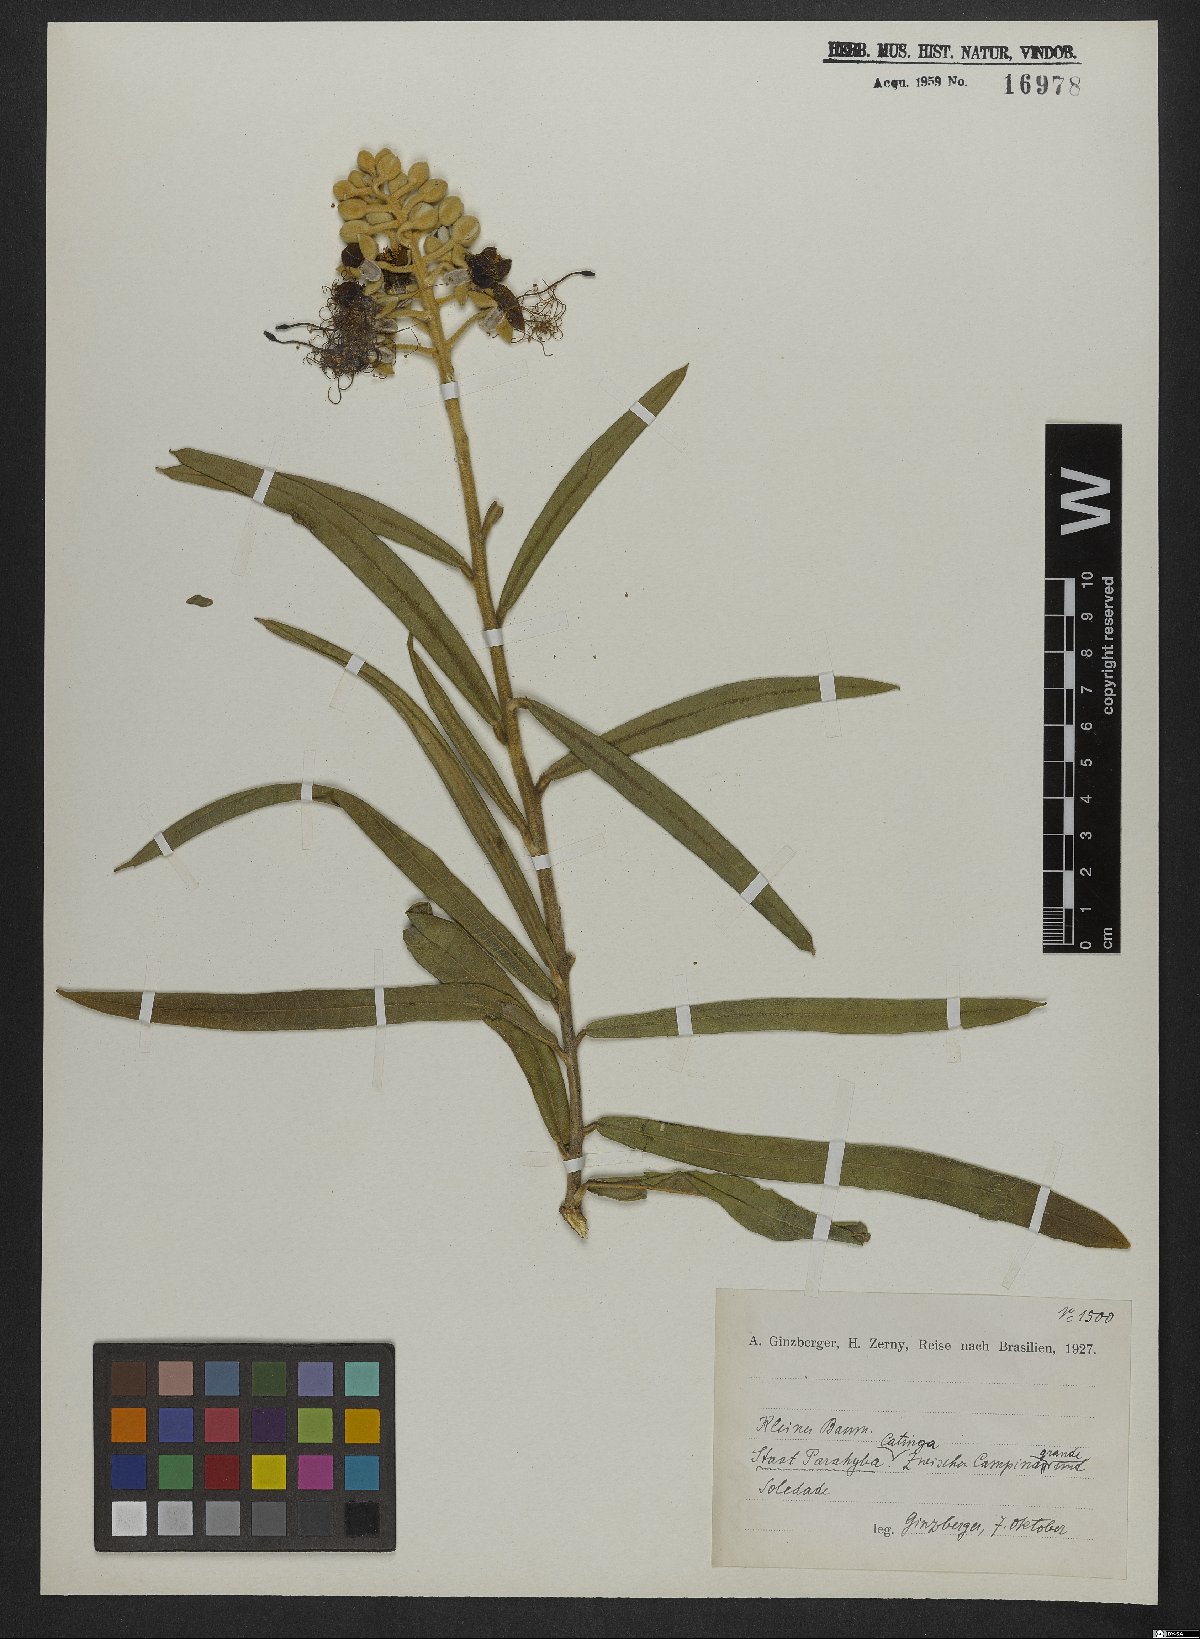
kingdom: Plantae
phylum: Tracheophyta
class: Magnoliopsida
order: Brassicales
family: Cleomaceae
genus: Cleome
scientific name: Cleome
